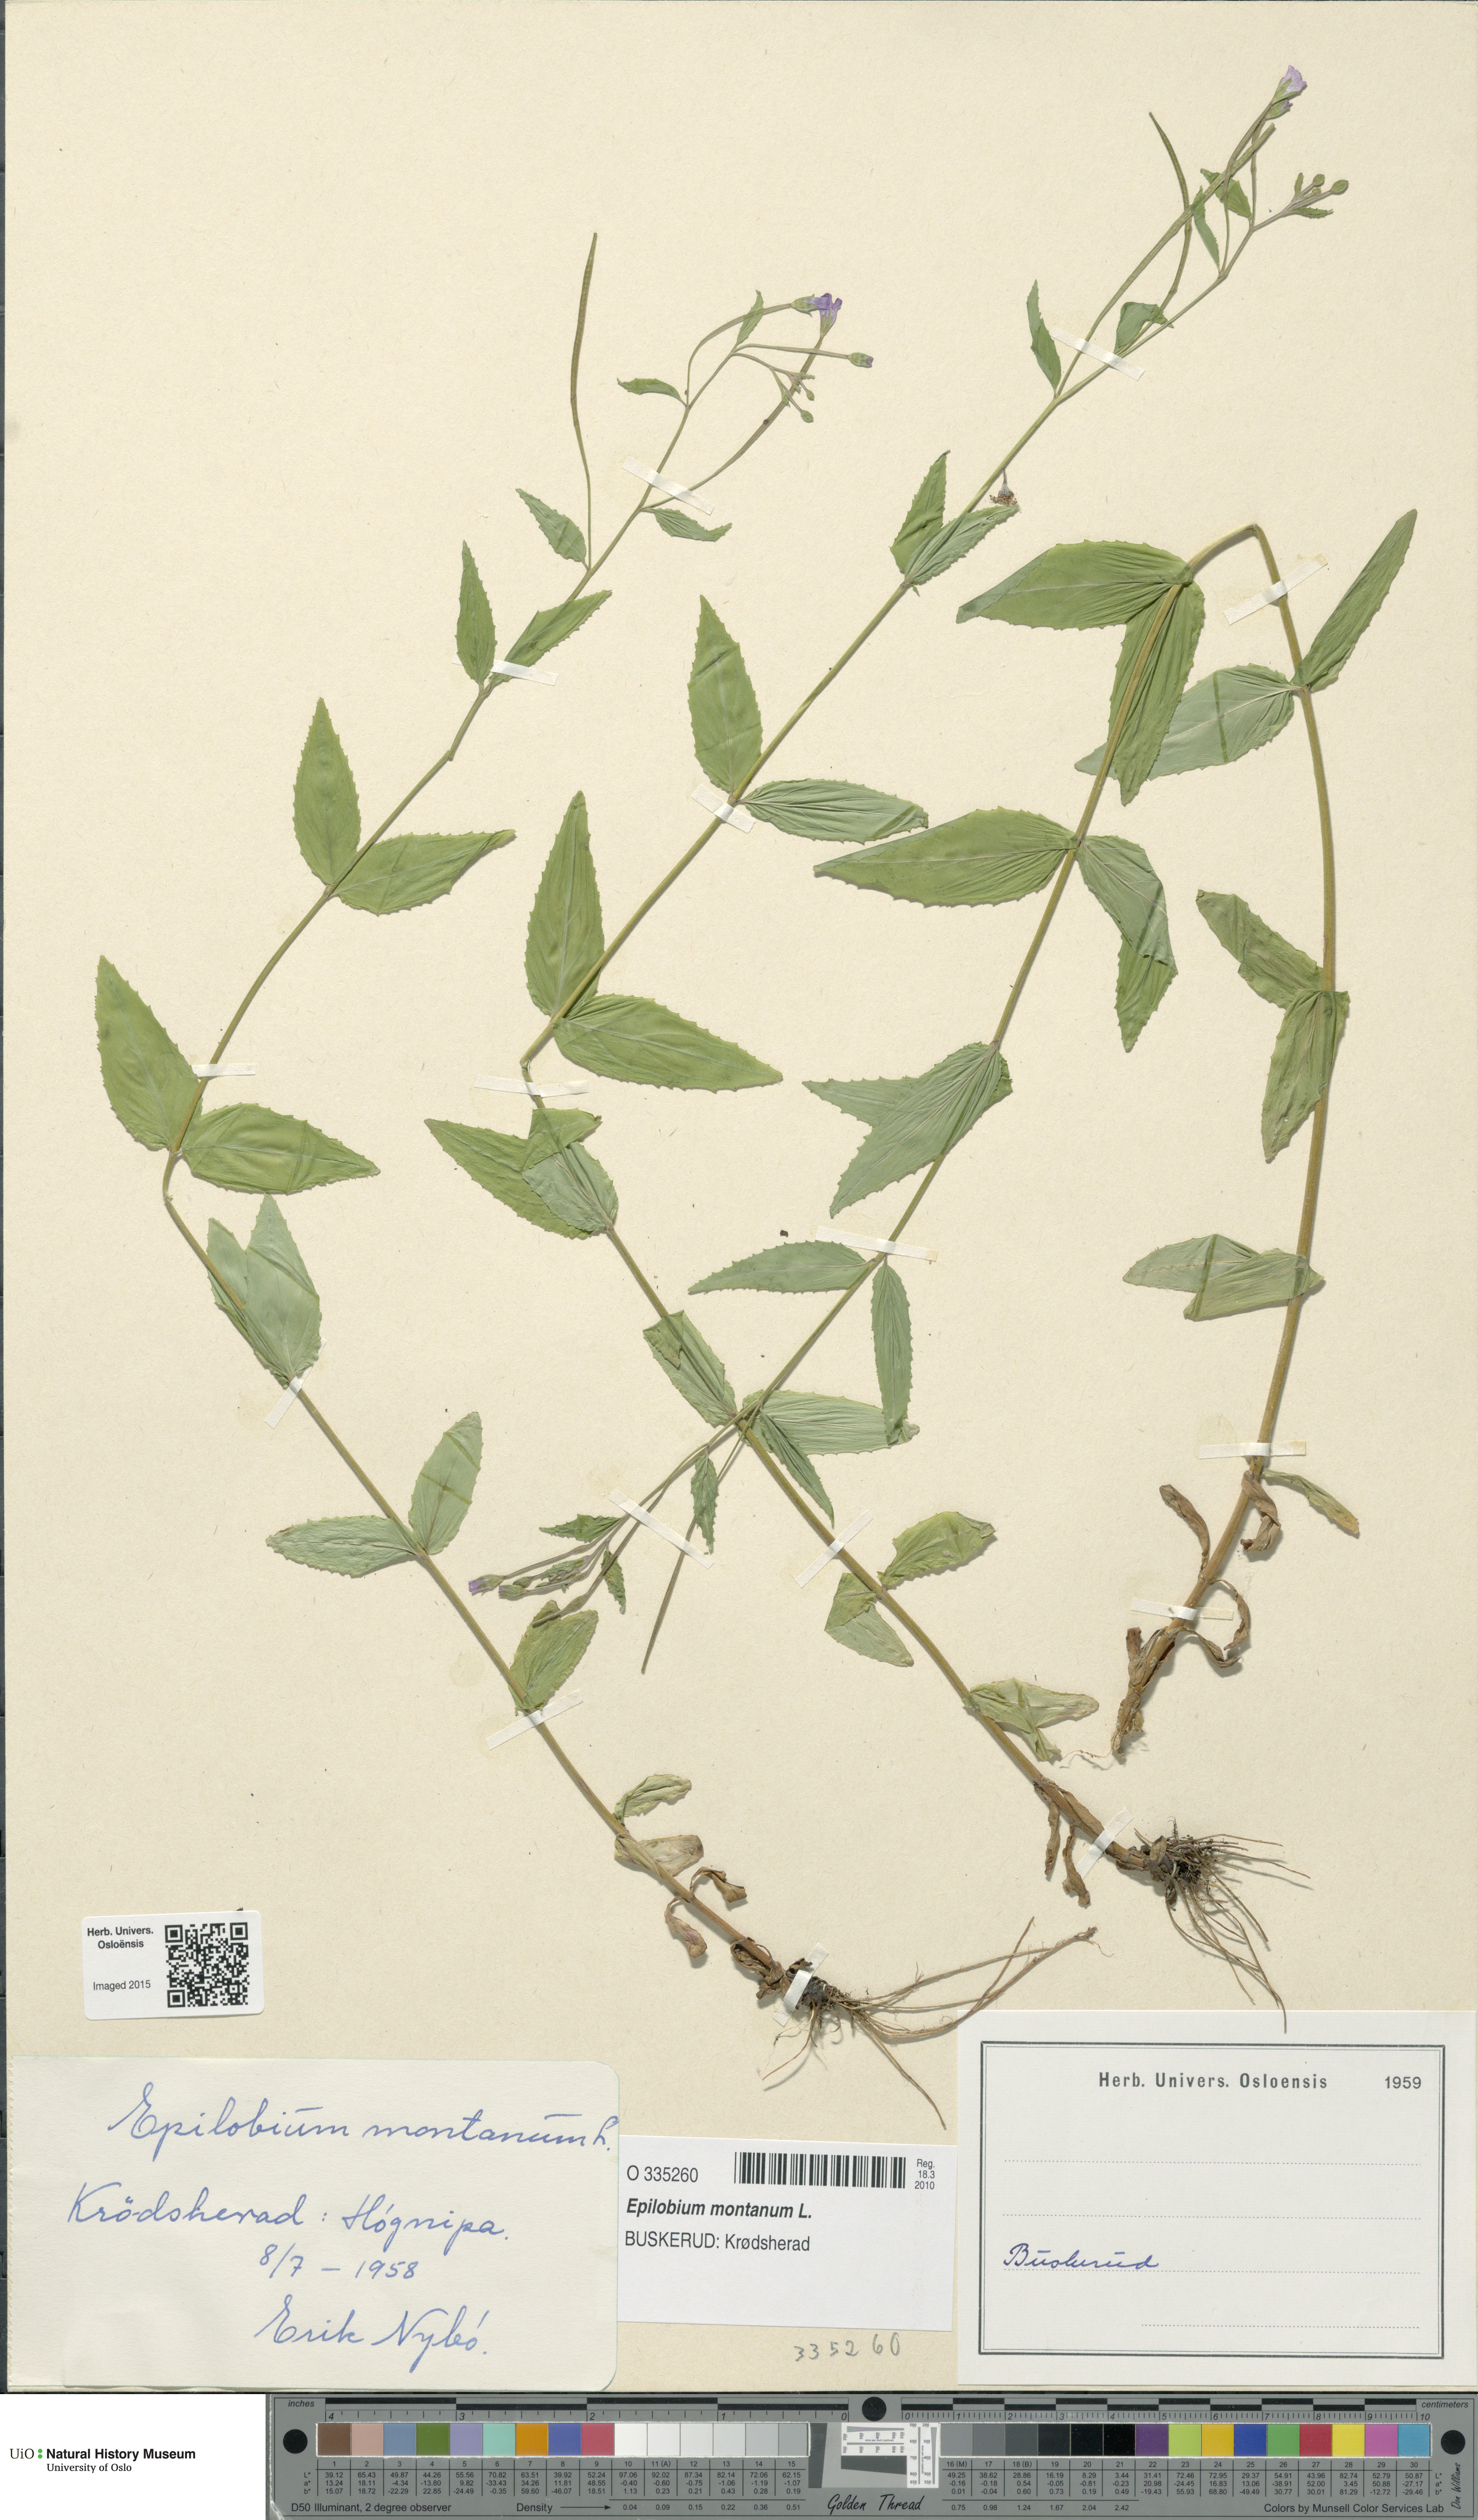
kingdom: Plantae
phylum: Tracheophyta
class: Magnoliopsida
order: Myrtales
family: Onagraceae
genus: Epilobium
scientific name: Epilobium montanum
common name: Broad-leaved willowherb
